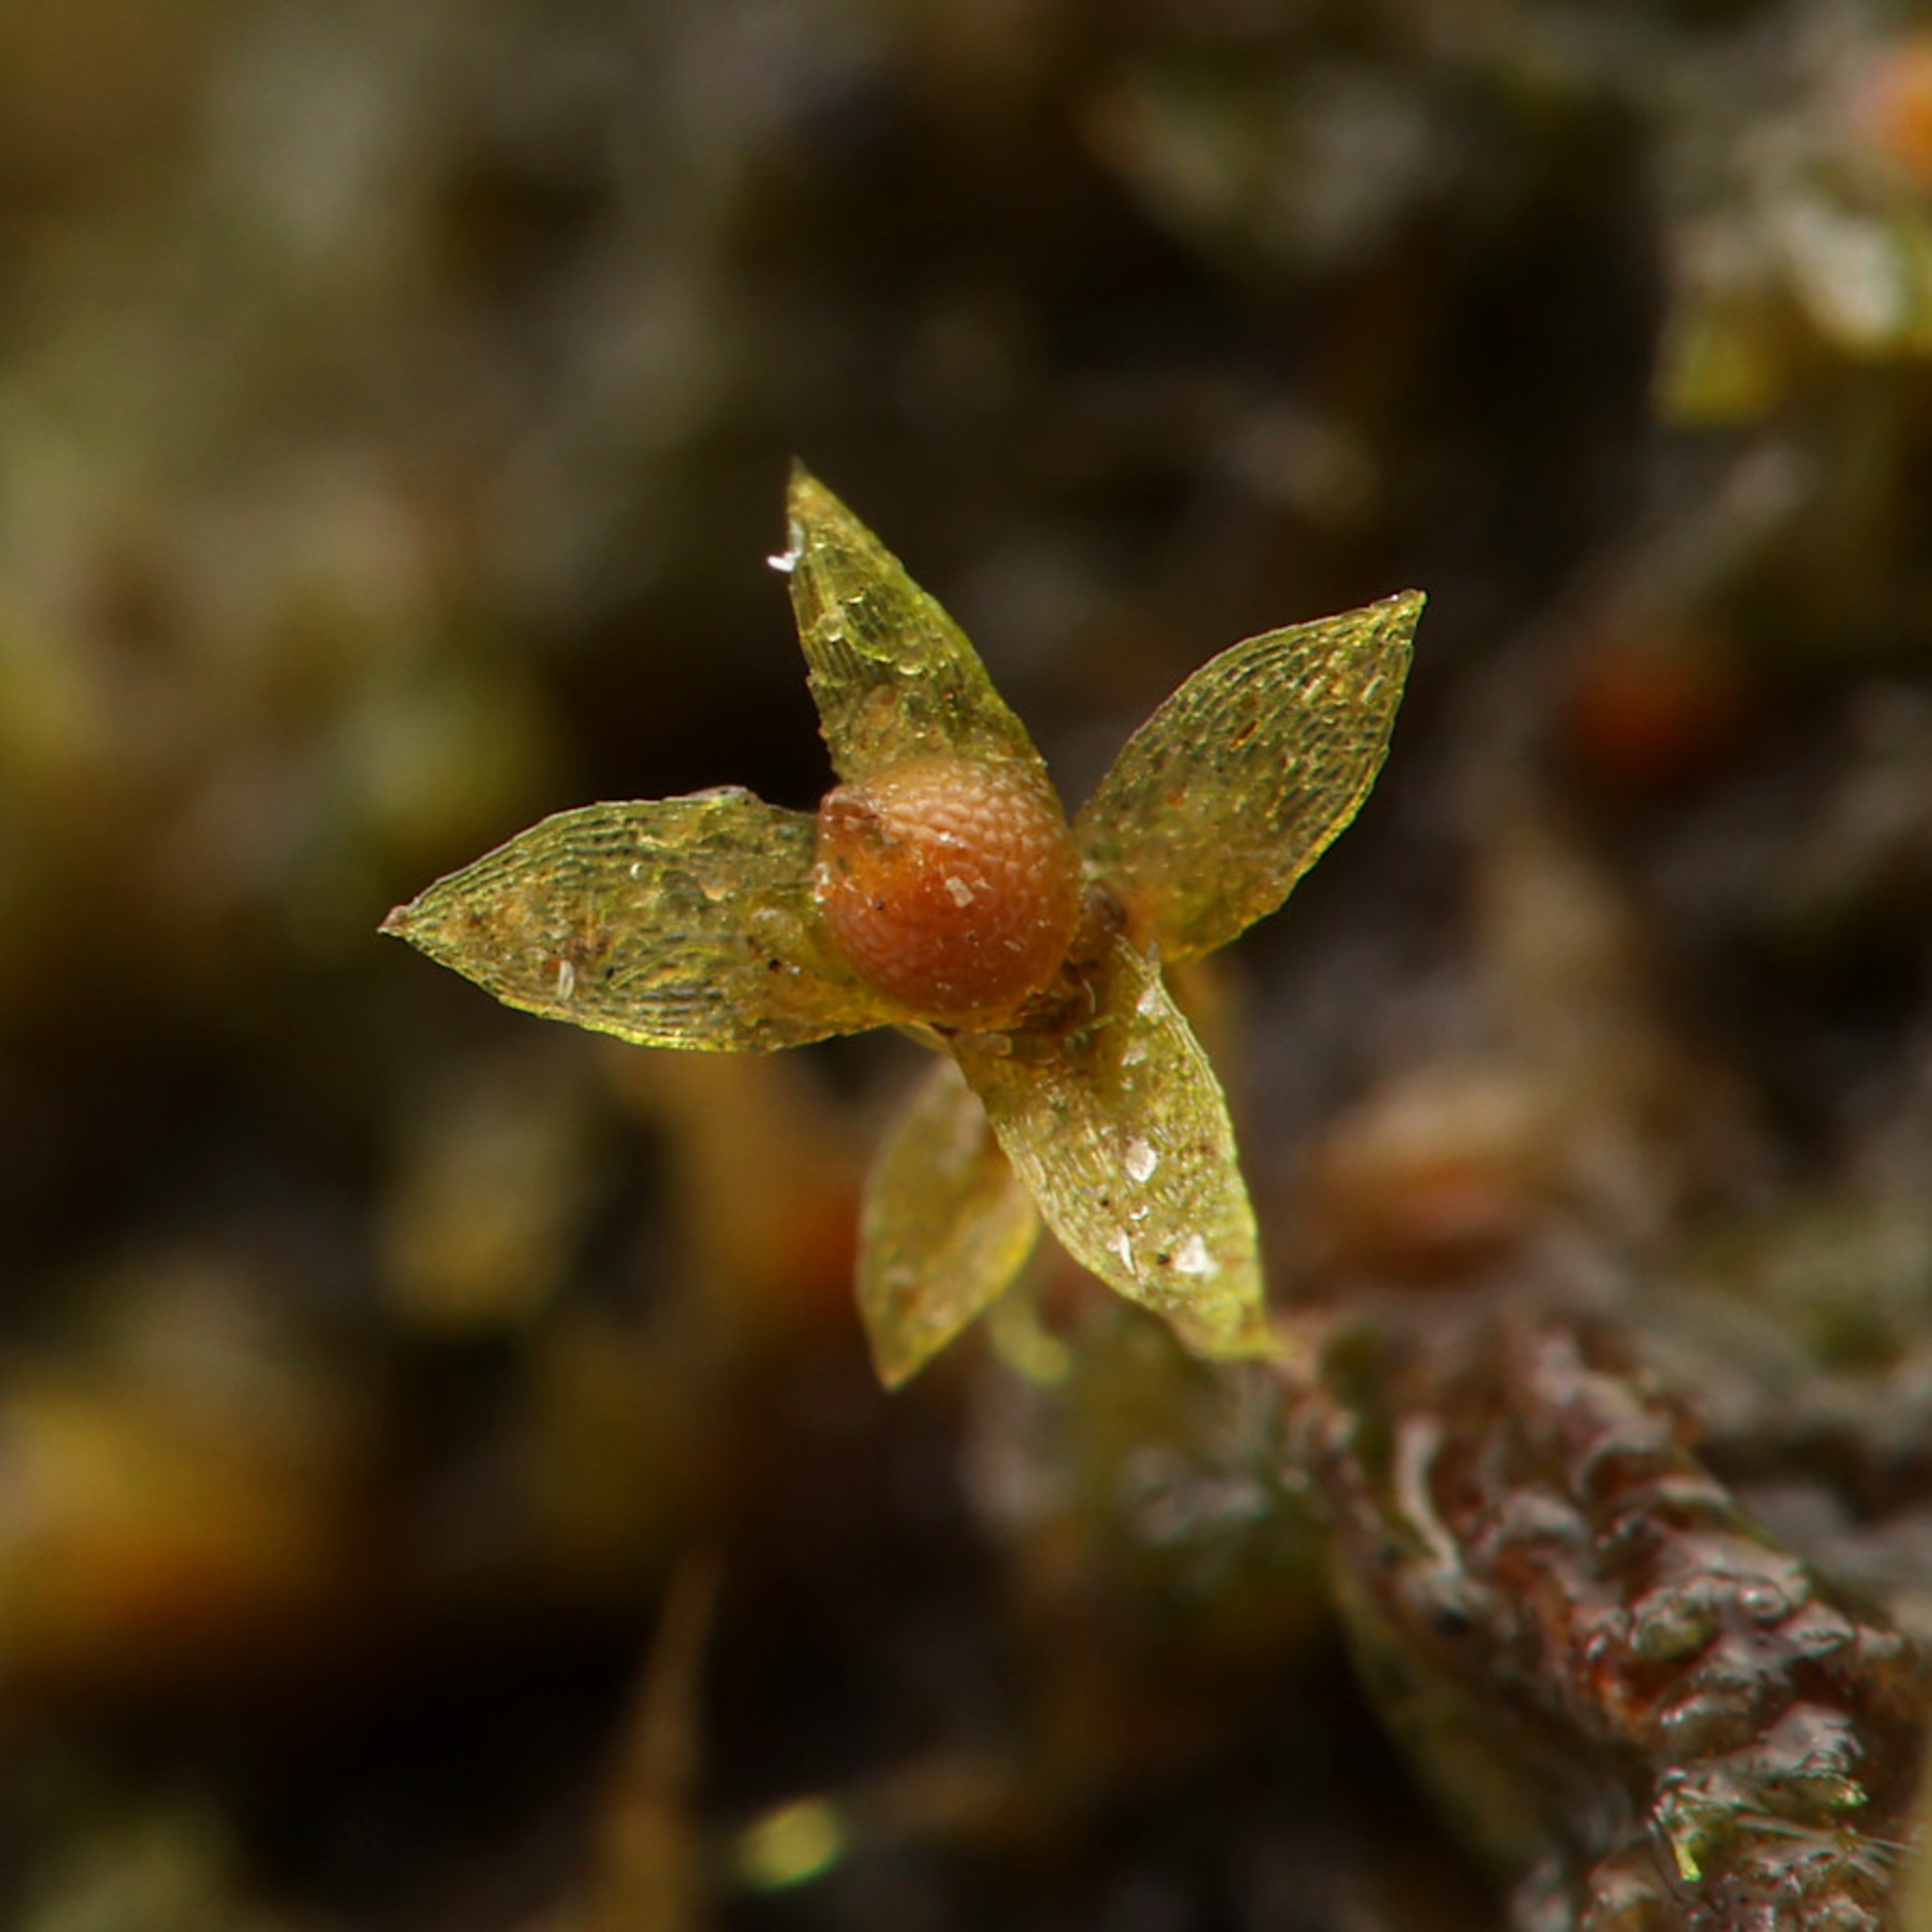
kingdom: Plantae
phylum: Bryophyta
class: Bryopsida
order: Funariales
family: Funariaceae
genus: Physcomitrium
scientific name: Physcomitrium patens
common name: Bulet muddermos
